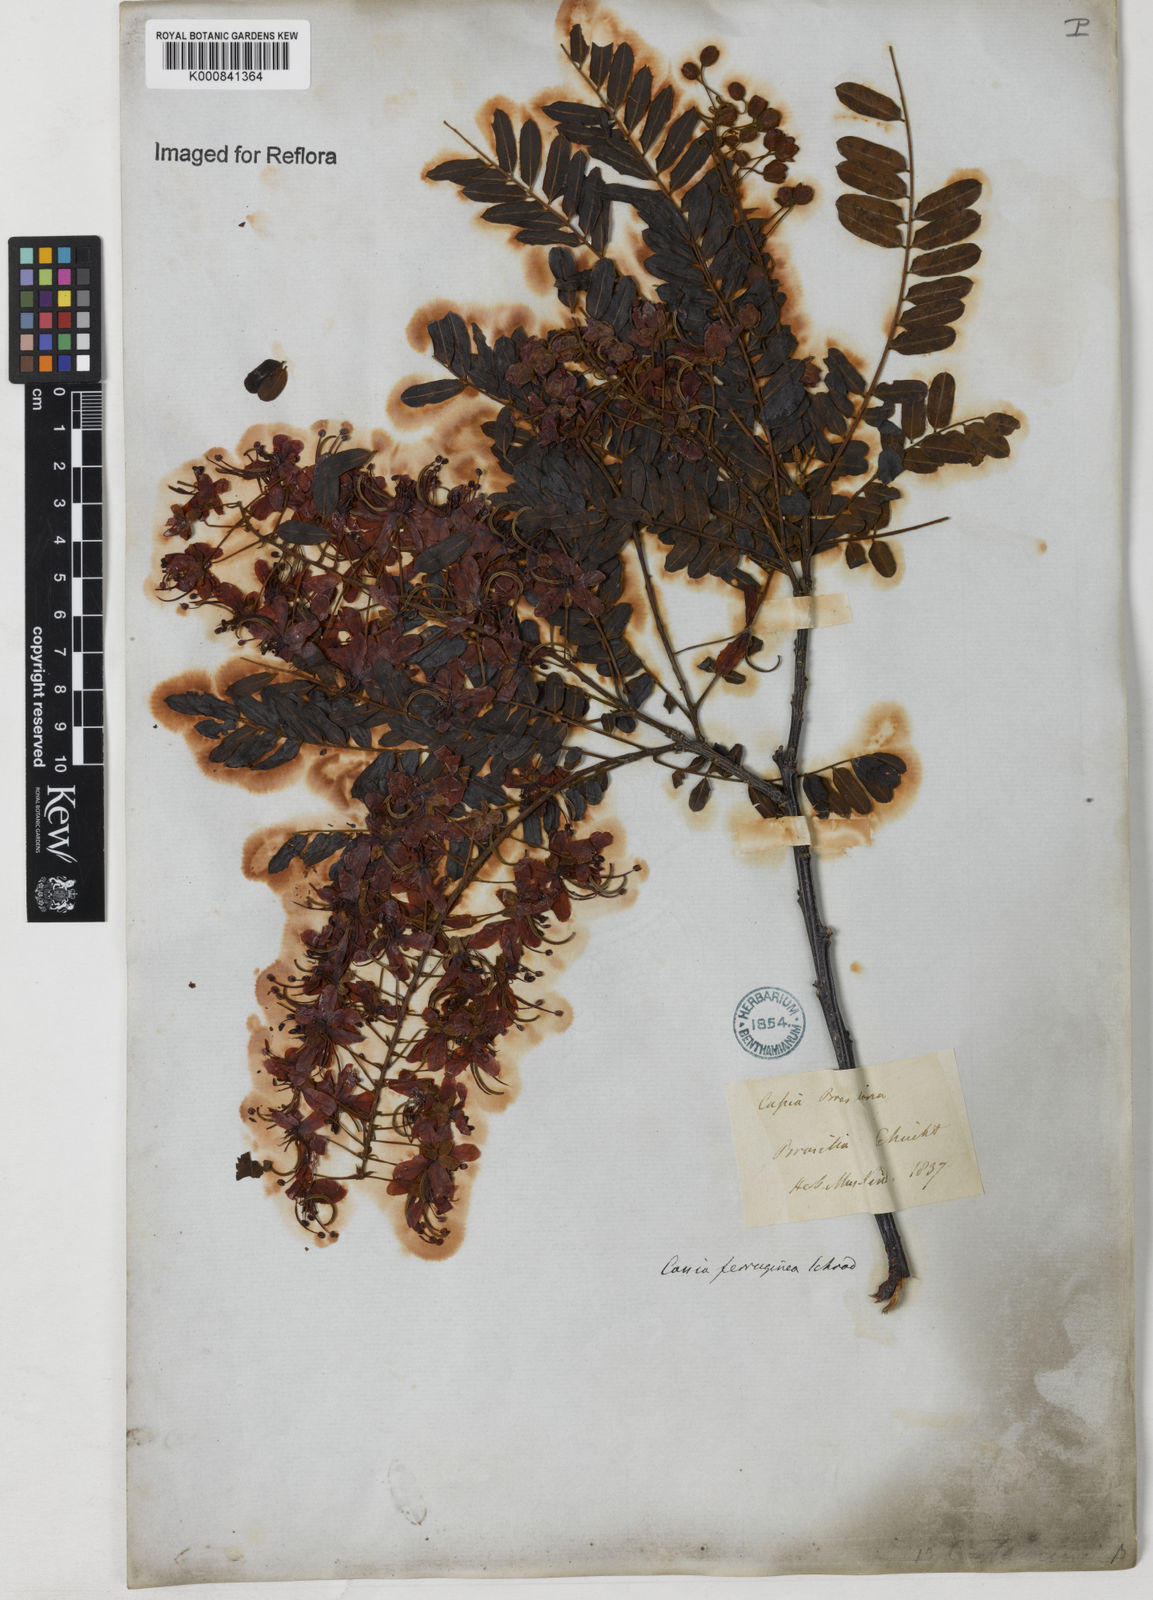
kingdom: Plantae
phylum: Tracheophyta
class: Magnoliopsida
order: Fabales
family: Fabaceae
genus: Cassia
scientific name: Cassia ferruginea
